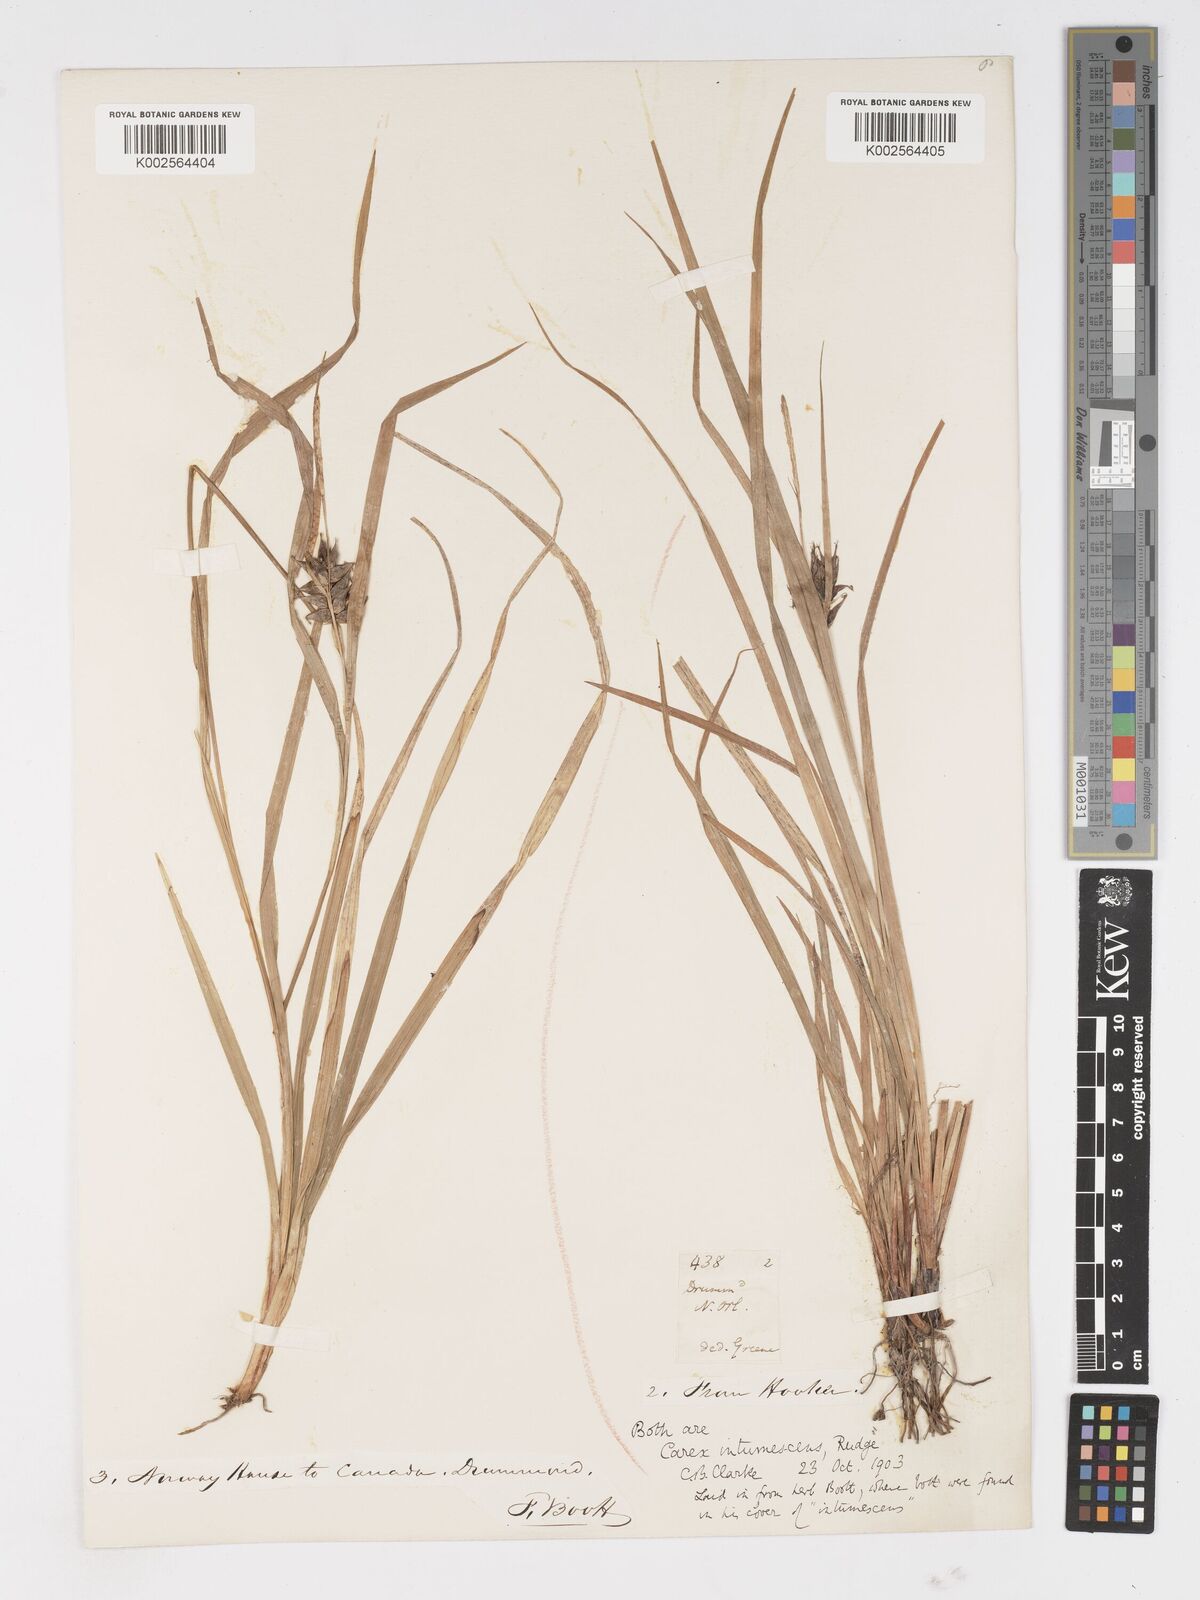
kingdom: Plantae
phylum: Tracheophyta
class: Liliopsida
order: Poales
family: Cyperaceae
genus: Carex
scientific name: Carex intumescens
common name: Greater bladder sedge
